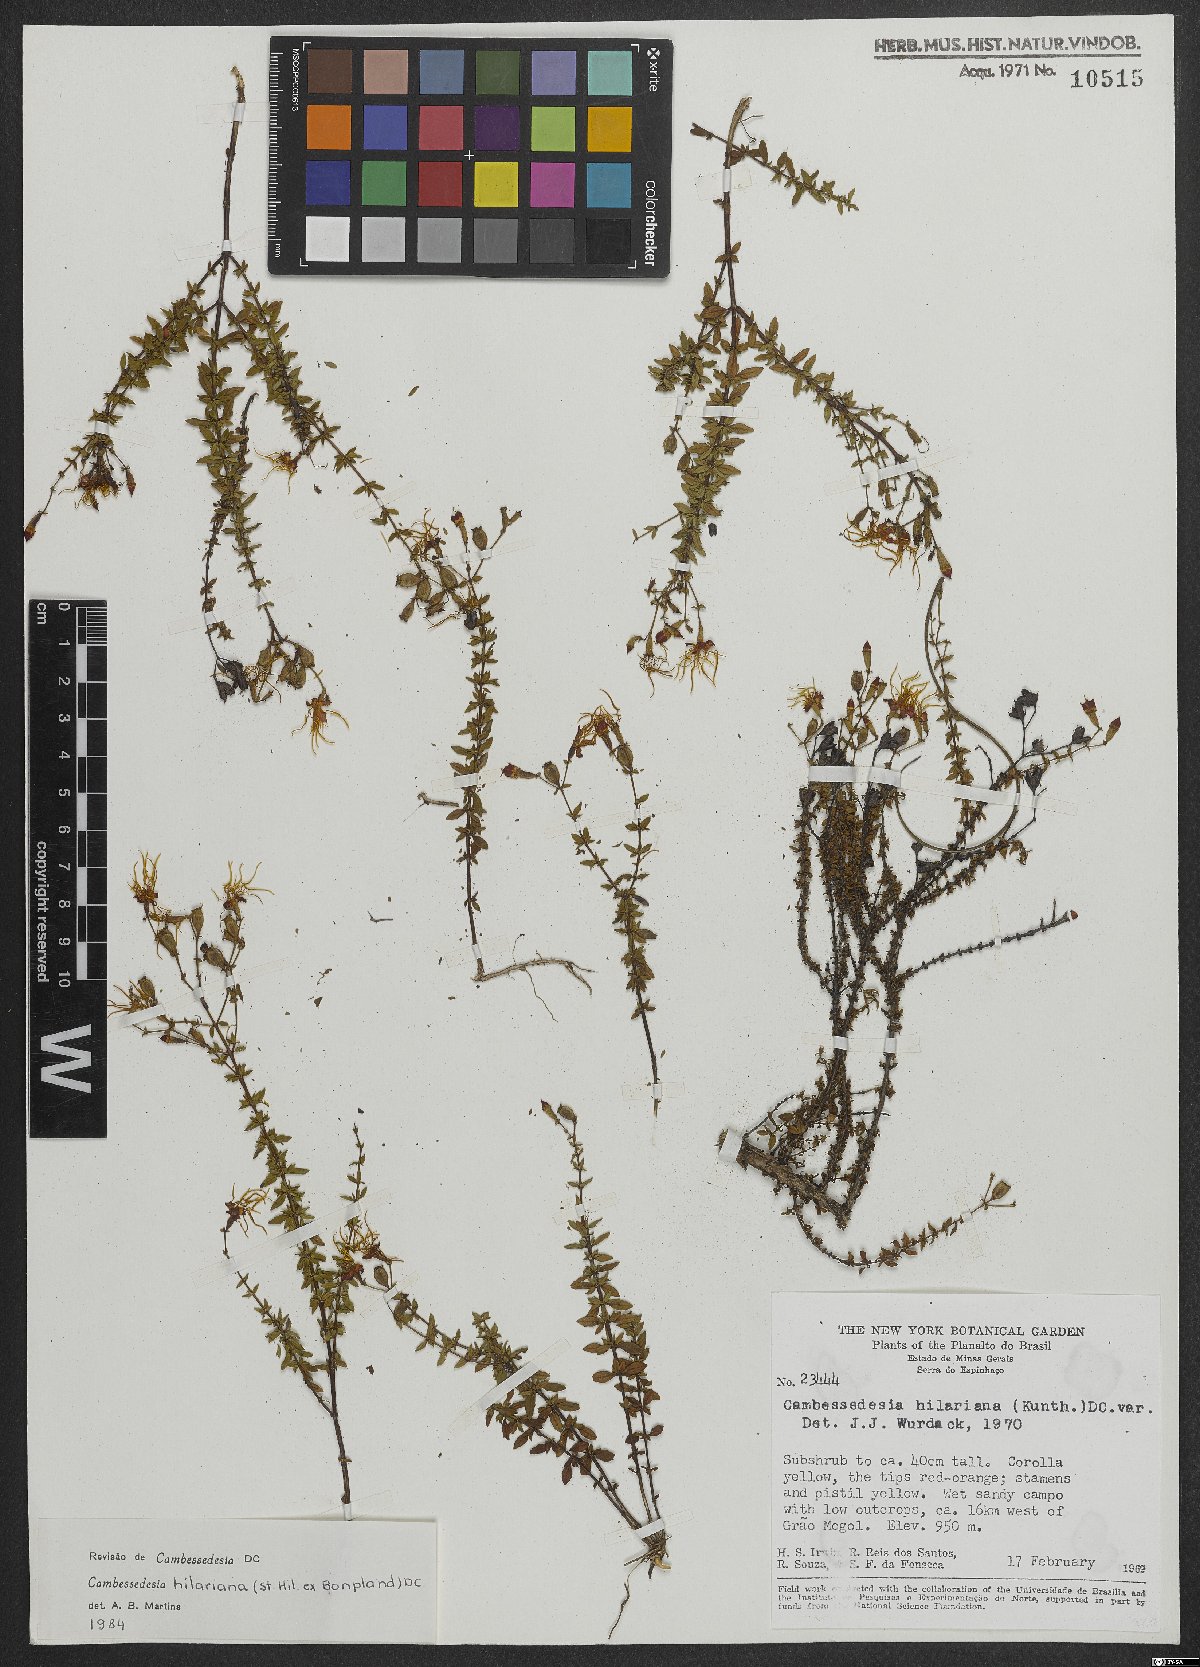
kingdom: Plantae
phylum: Tracheophyta
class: Magnoliopsida
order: Myrtales
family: Melastomataceae
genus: Cambessedesia
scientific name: Cambessedesia hilariana
